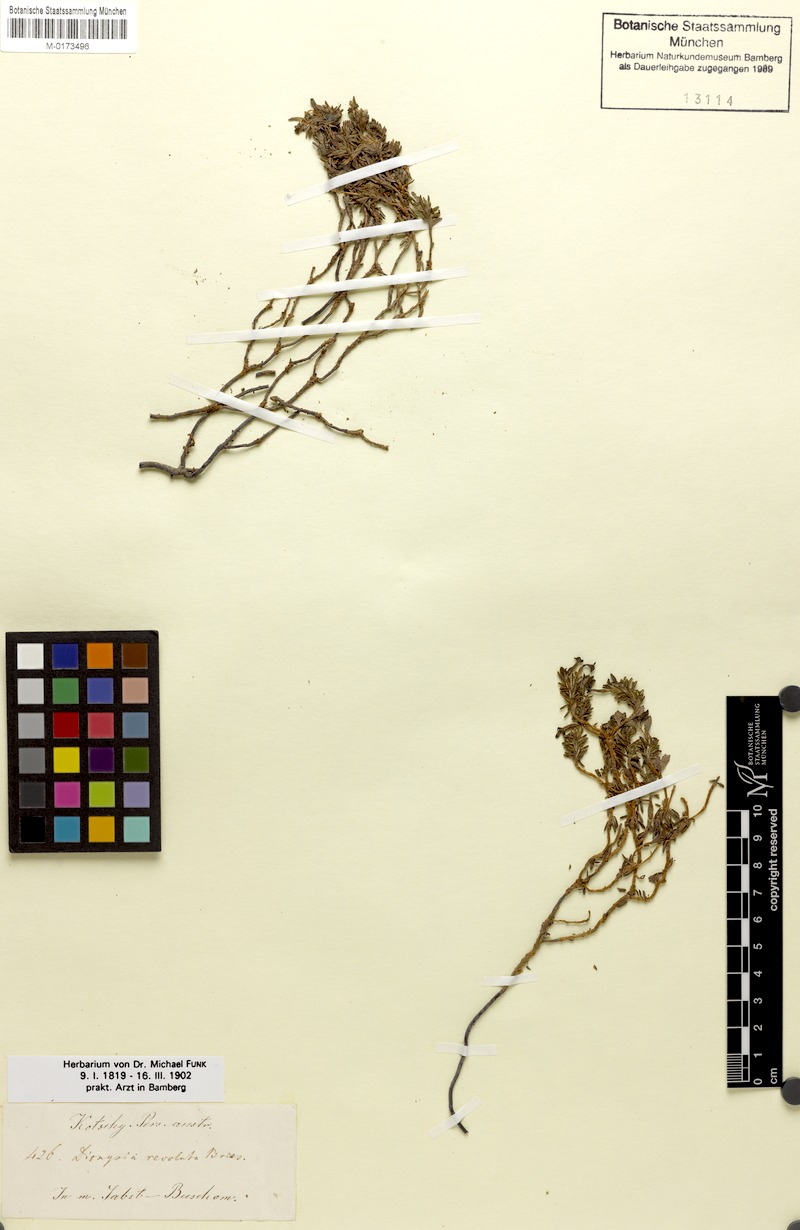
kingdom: Plantae
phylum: Tracheophyta
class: Magnoliopsida
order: Ericales
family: Primulaceae
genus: Dionysia
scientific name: Dionysia revoluta
